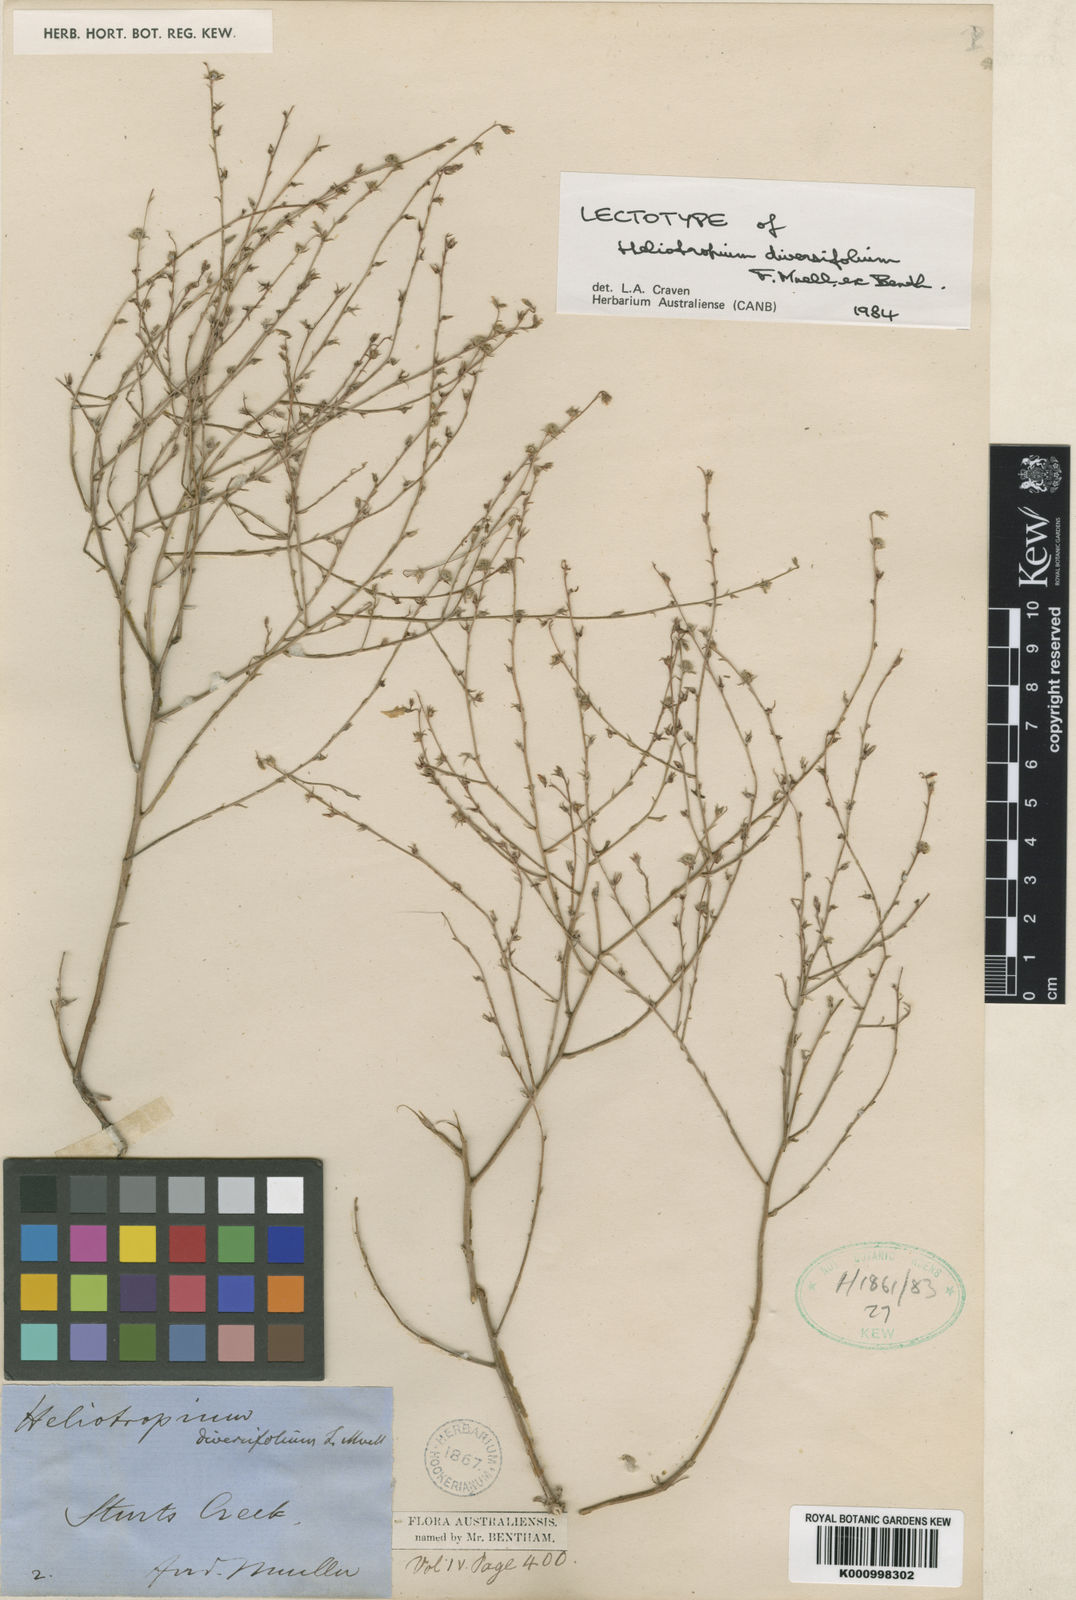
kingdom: Plantae
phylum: Tracheophyta
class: Magnoliopsida
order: Boraginales
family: Heliotropiaceae
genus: Euploca
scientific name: Euploca diversifolia
